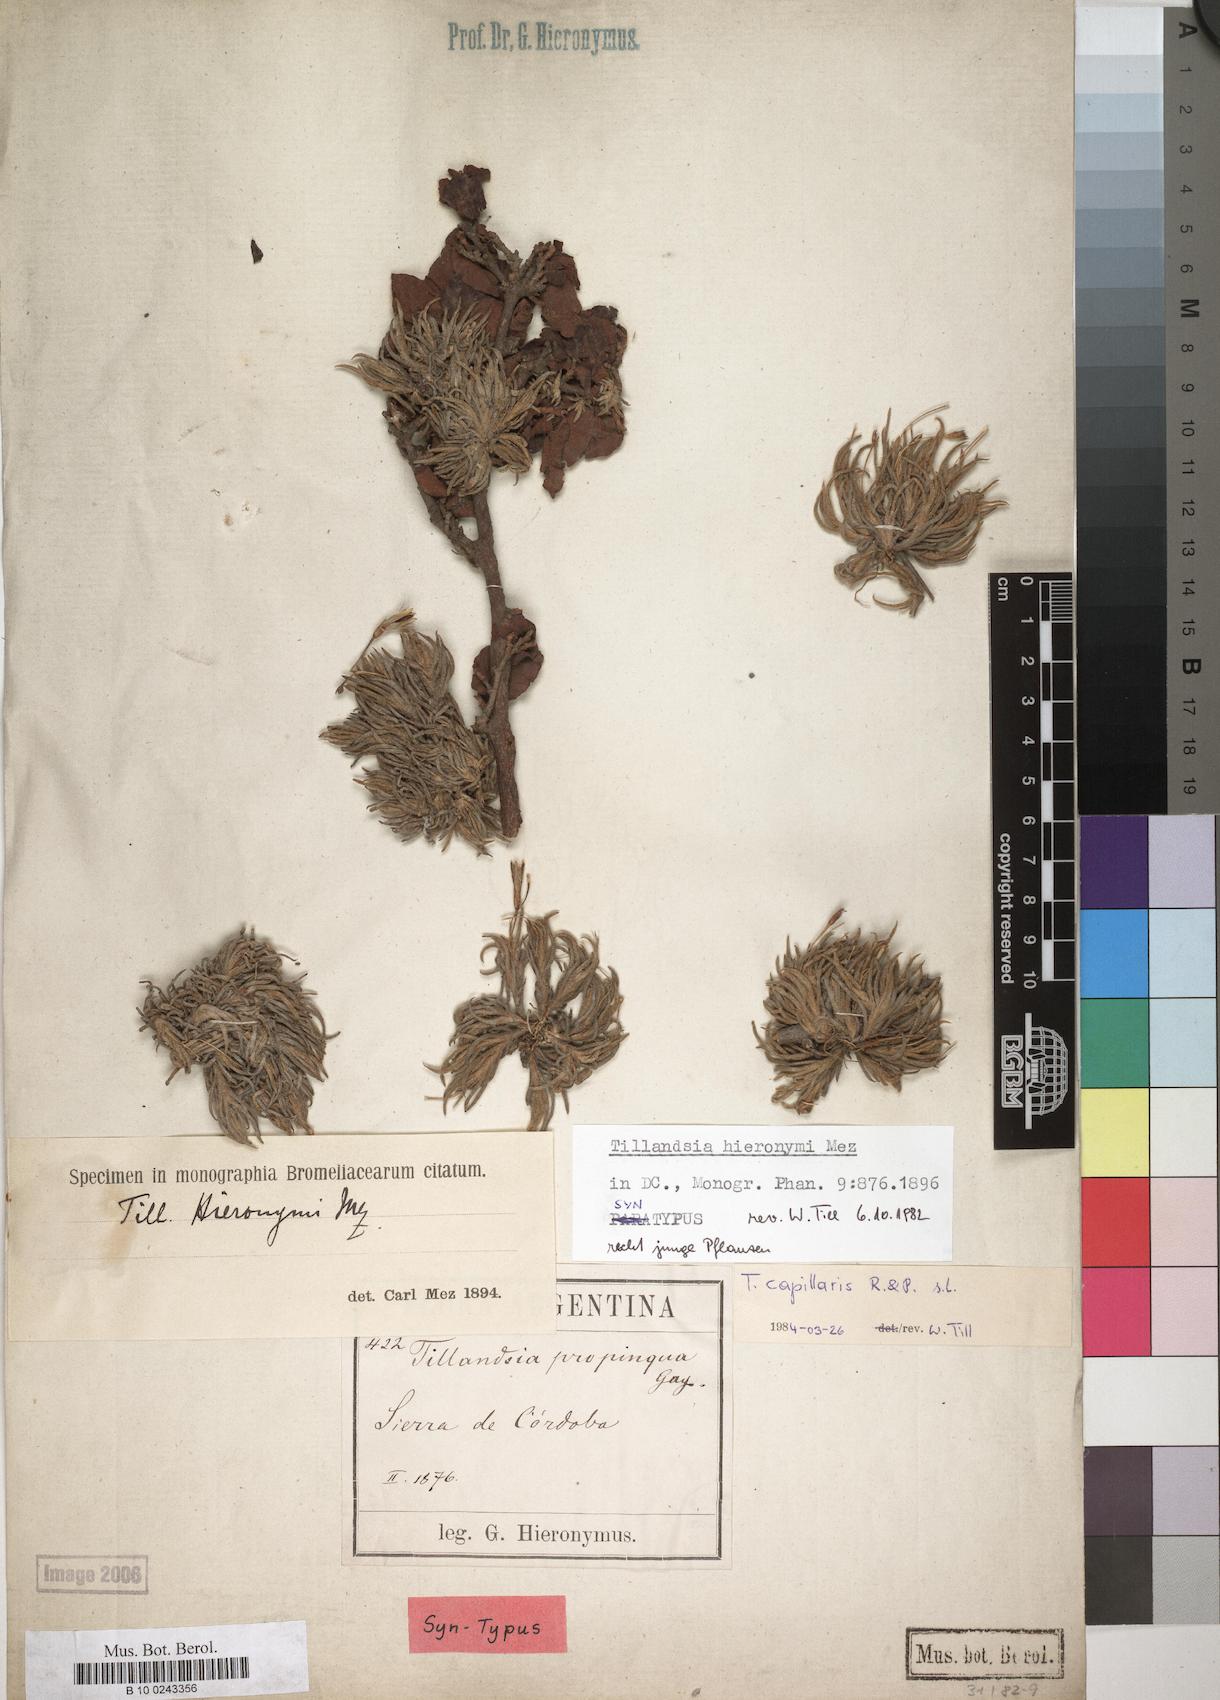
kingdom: Plantae
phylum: Tracheophyta
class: Liliopsida
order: Poales
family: Bromeliaceae
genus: Tillandsia
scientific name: Tillandsia capillaris
